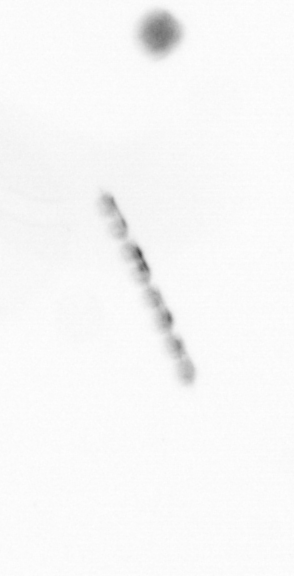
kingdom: Chromista
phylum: Ochrophyta
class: Bacillariophyceae
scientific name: Bacillariophyceae
